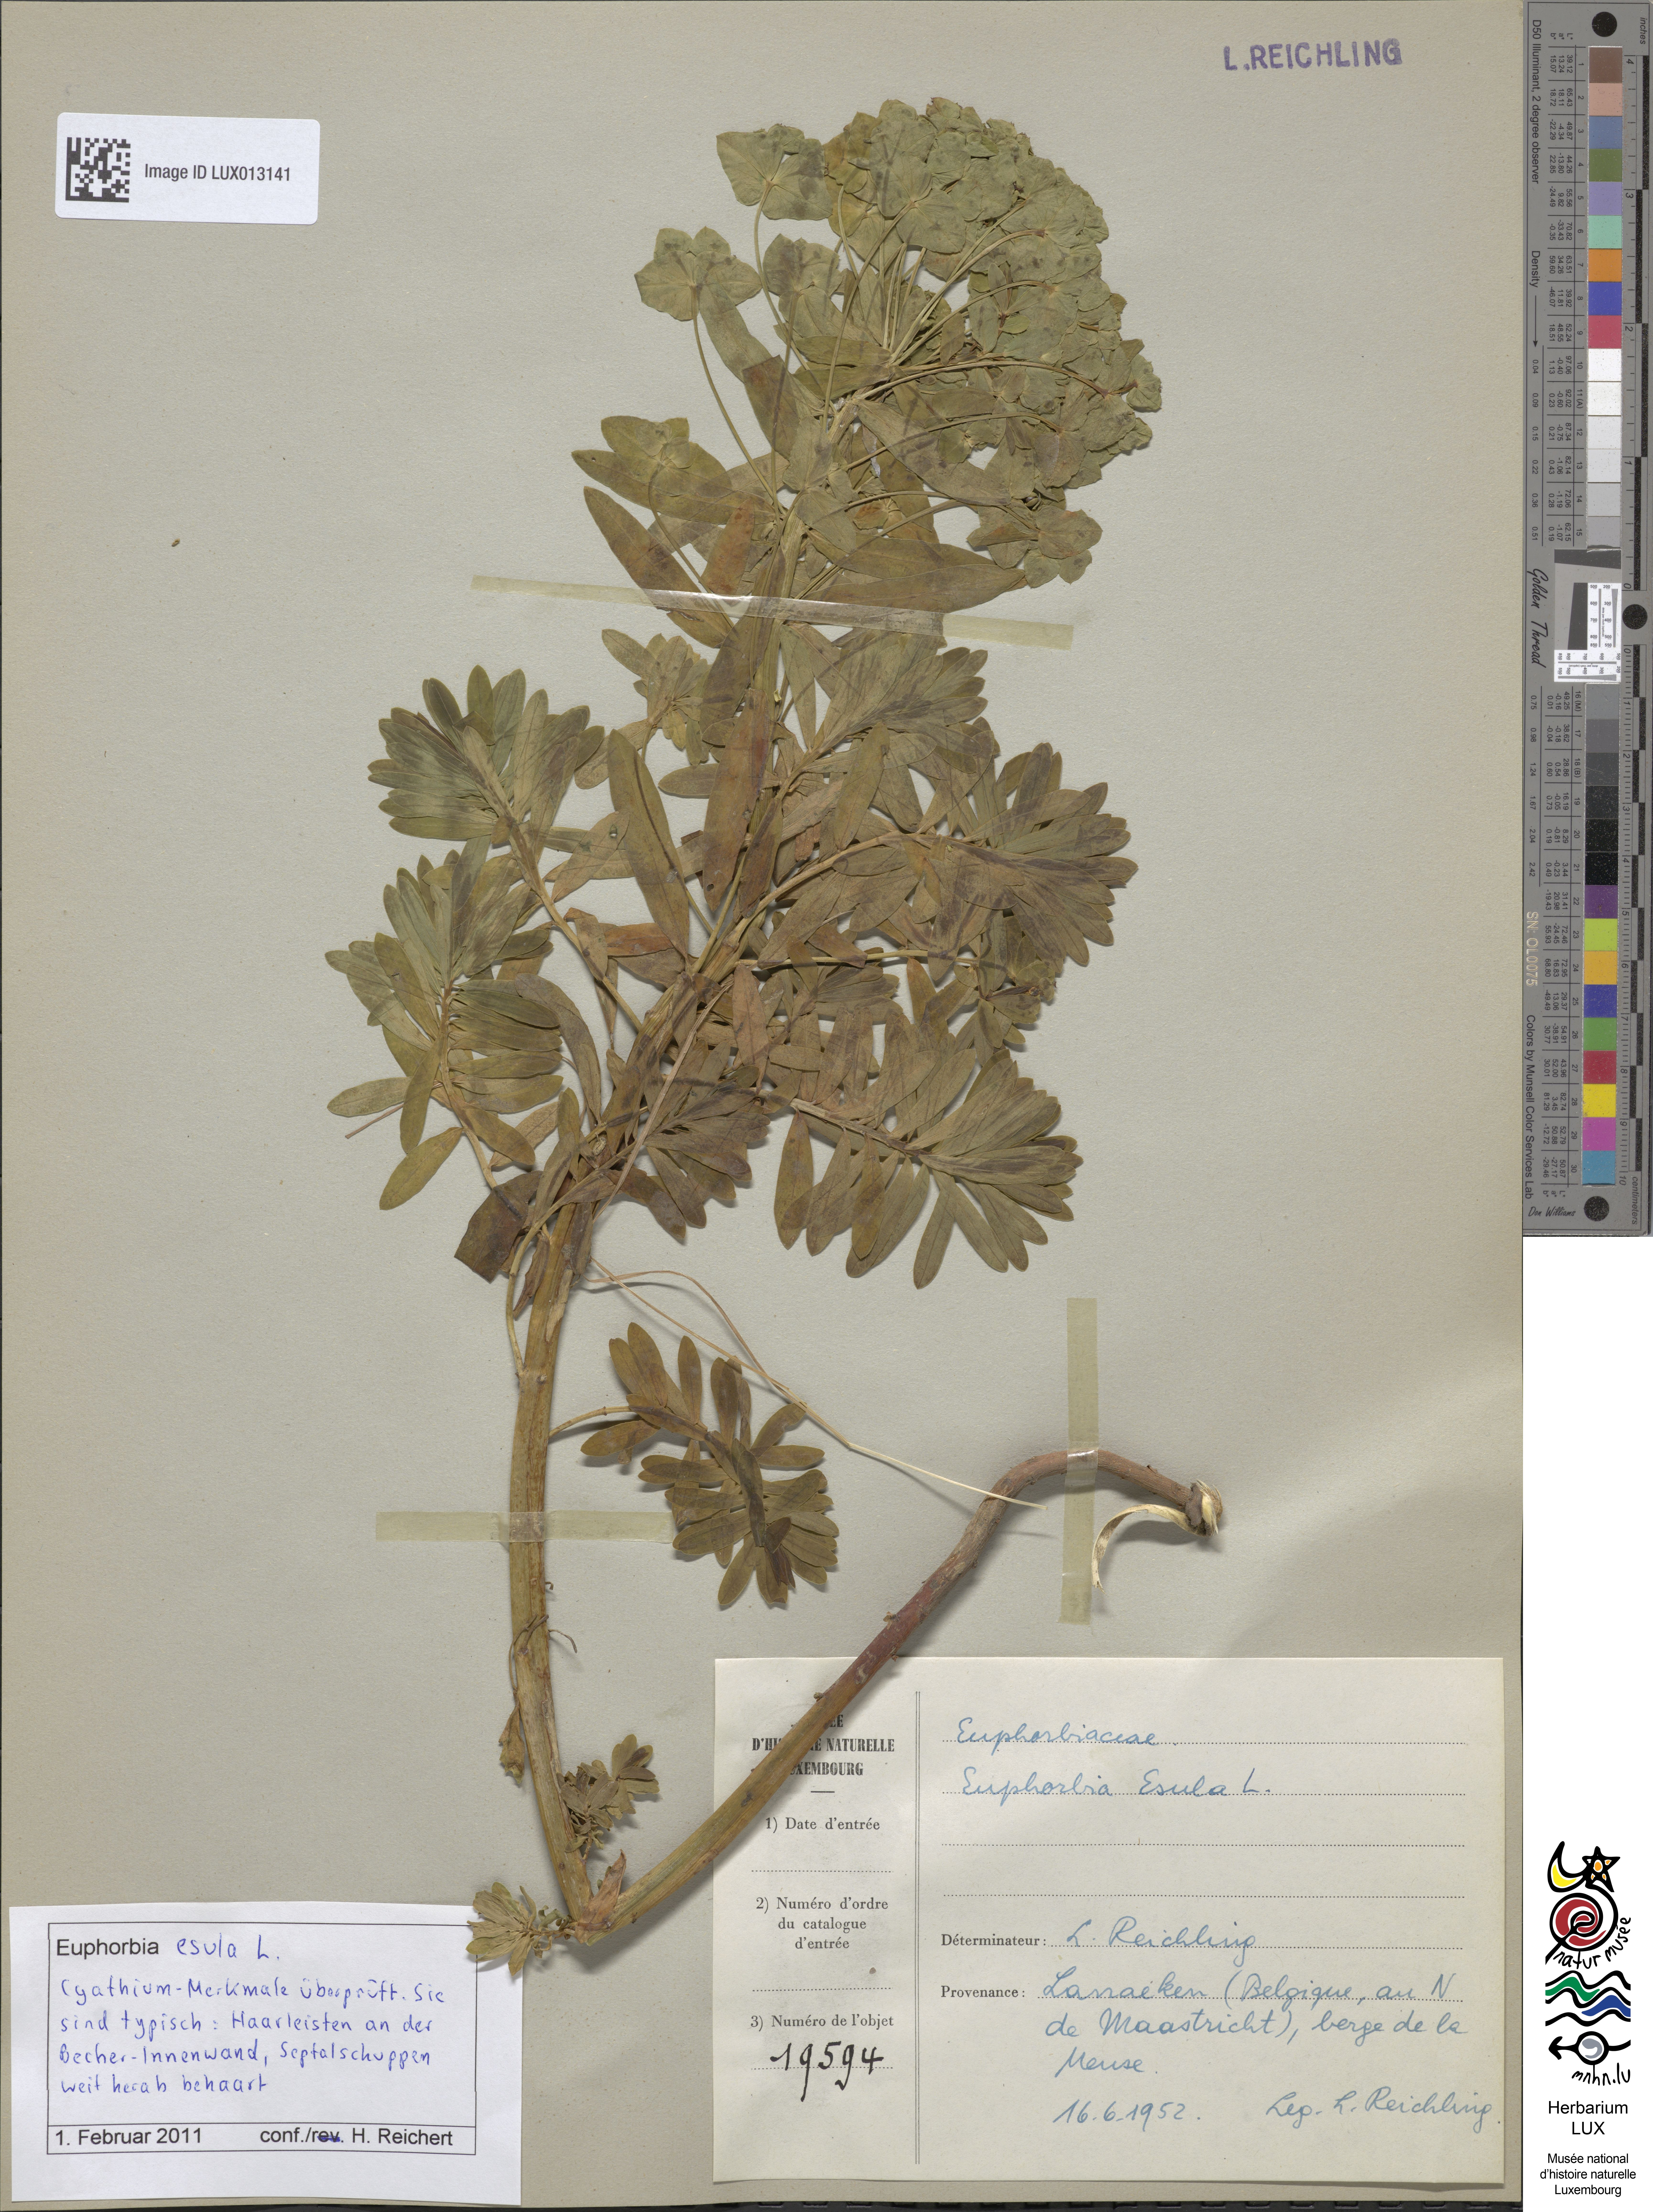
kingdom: Plantae
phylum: Tracheophyta
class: Magnoliopsida
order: Malpighiales
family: Euphorbiaceae
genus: Euphorbia
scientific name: Euphorbia esula
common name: Leafy spurge
